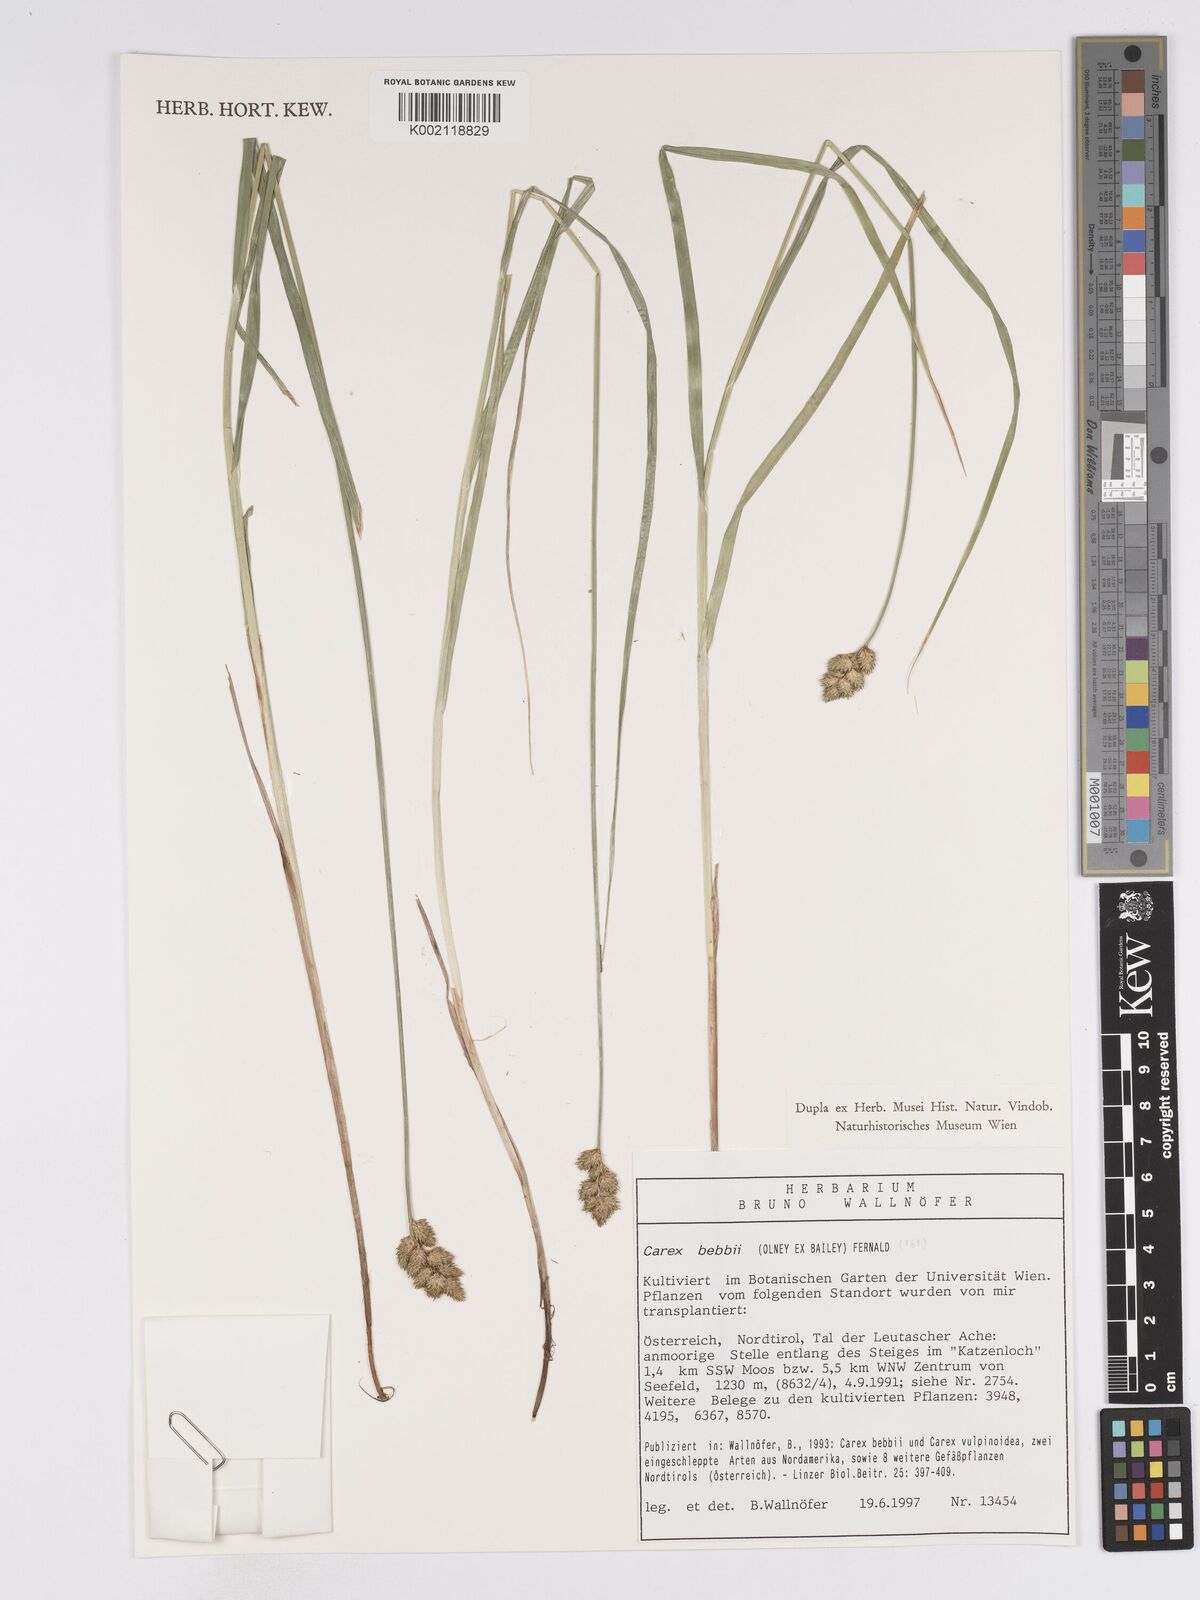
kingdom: Plantae
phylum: Tracheophyta
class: Liliopsida
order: Poales
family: Cyperaceae
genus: Carex
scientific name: Carex bebbii
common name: Bebb's sedge
